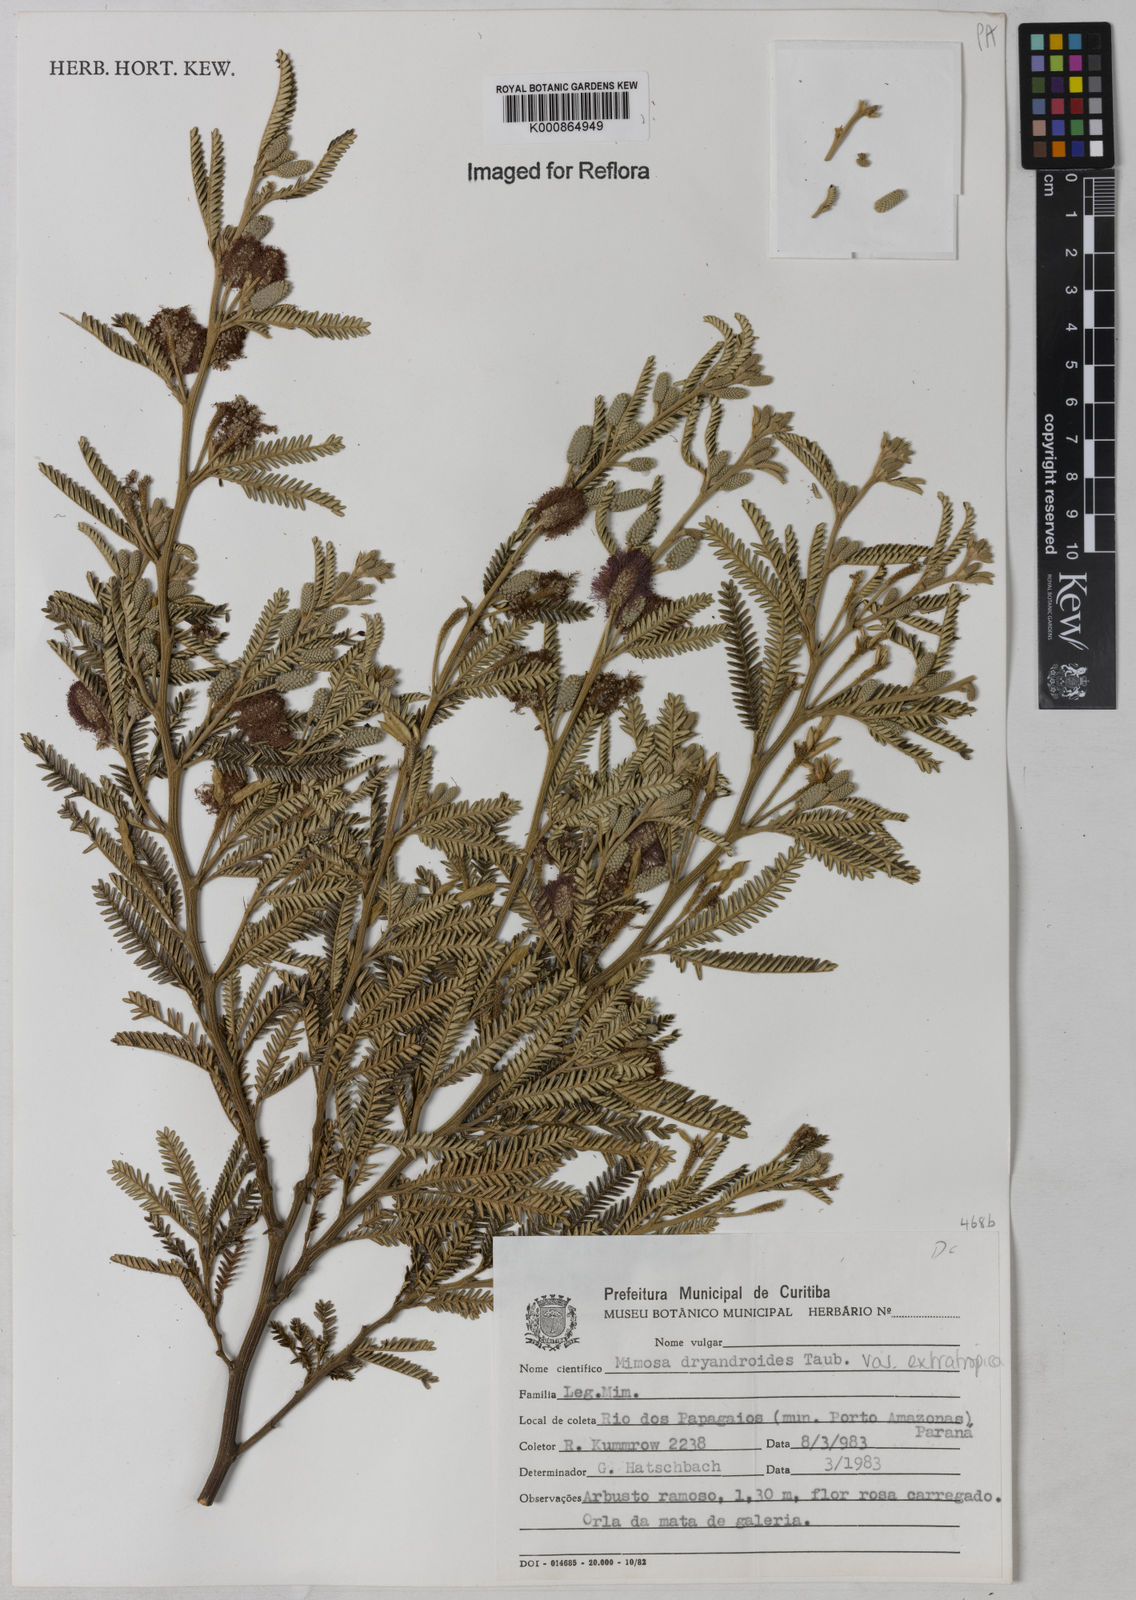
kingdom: Plantae
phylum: Tracheophyta
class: Magnoliopsida
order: Fabales
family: Fabaceae
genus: Mimosa
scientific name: Mimosa dryandroides
